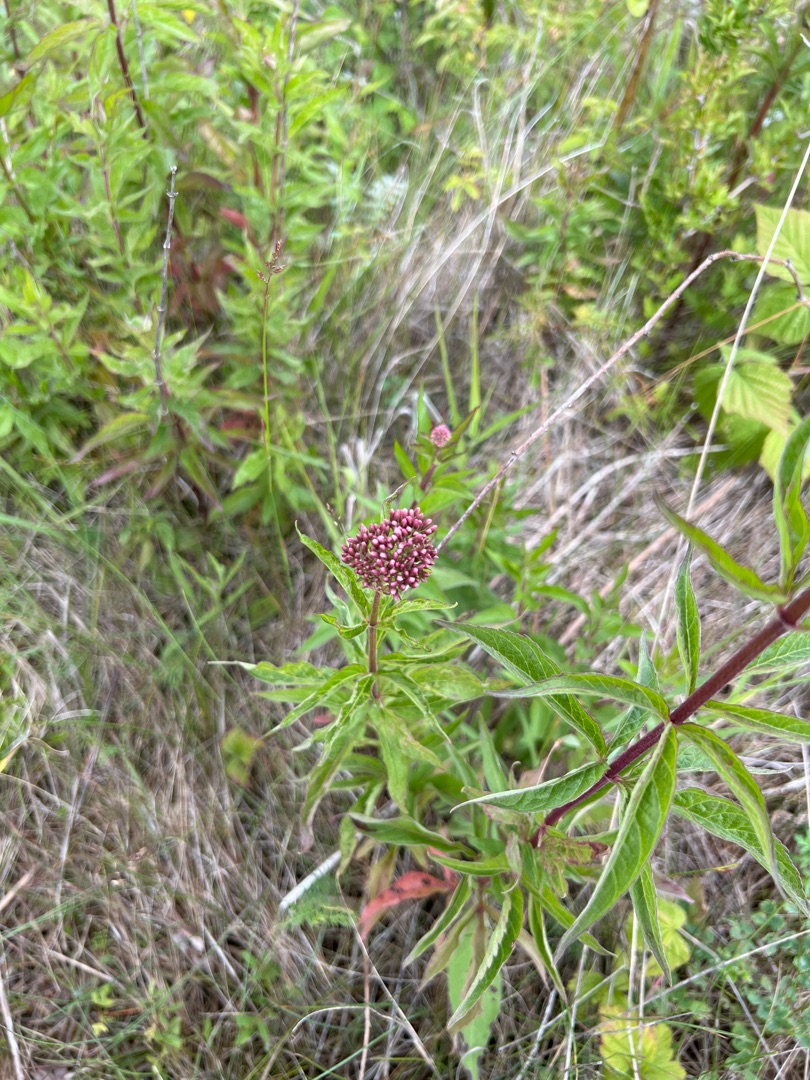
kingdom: Plantae
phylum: Tracheophyta
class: Magnoliopsida
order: Asterales
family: Asteraceae
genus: Eupatorium
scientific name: Eupatorium cannabinum
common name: Hjortetrøst
